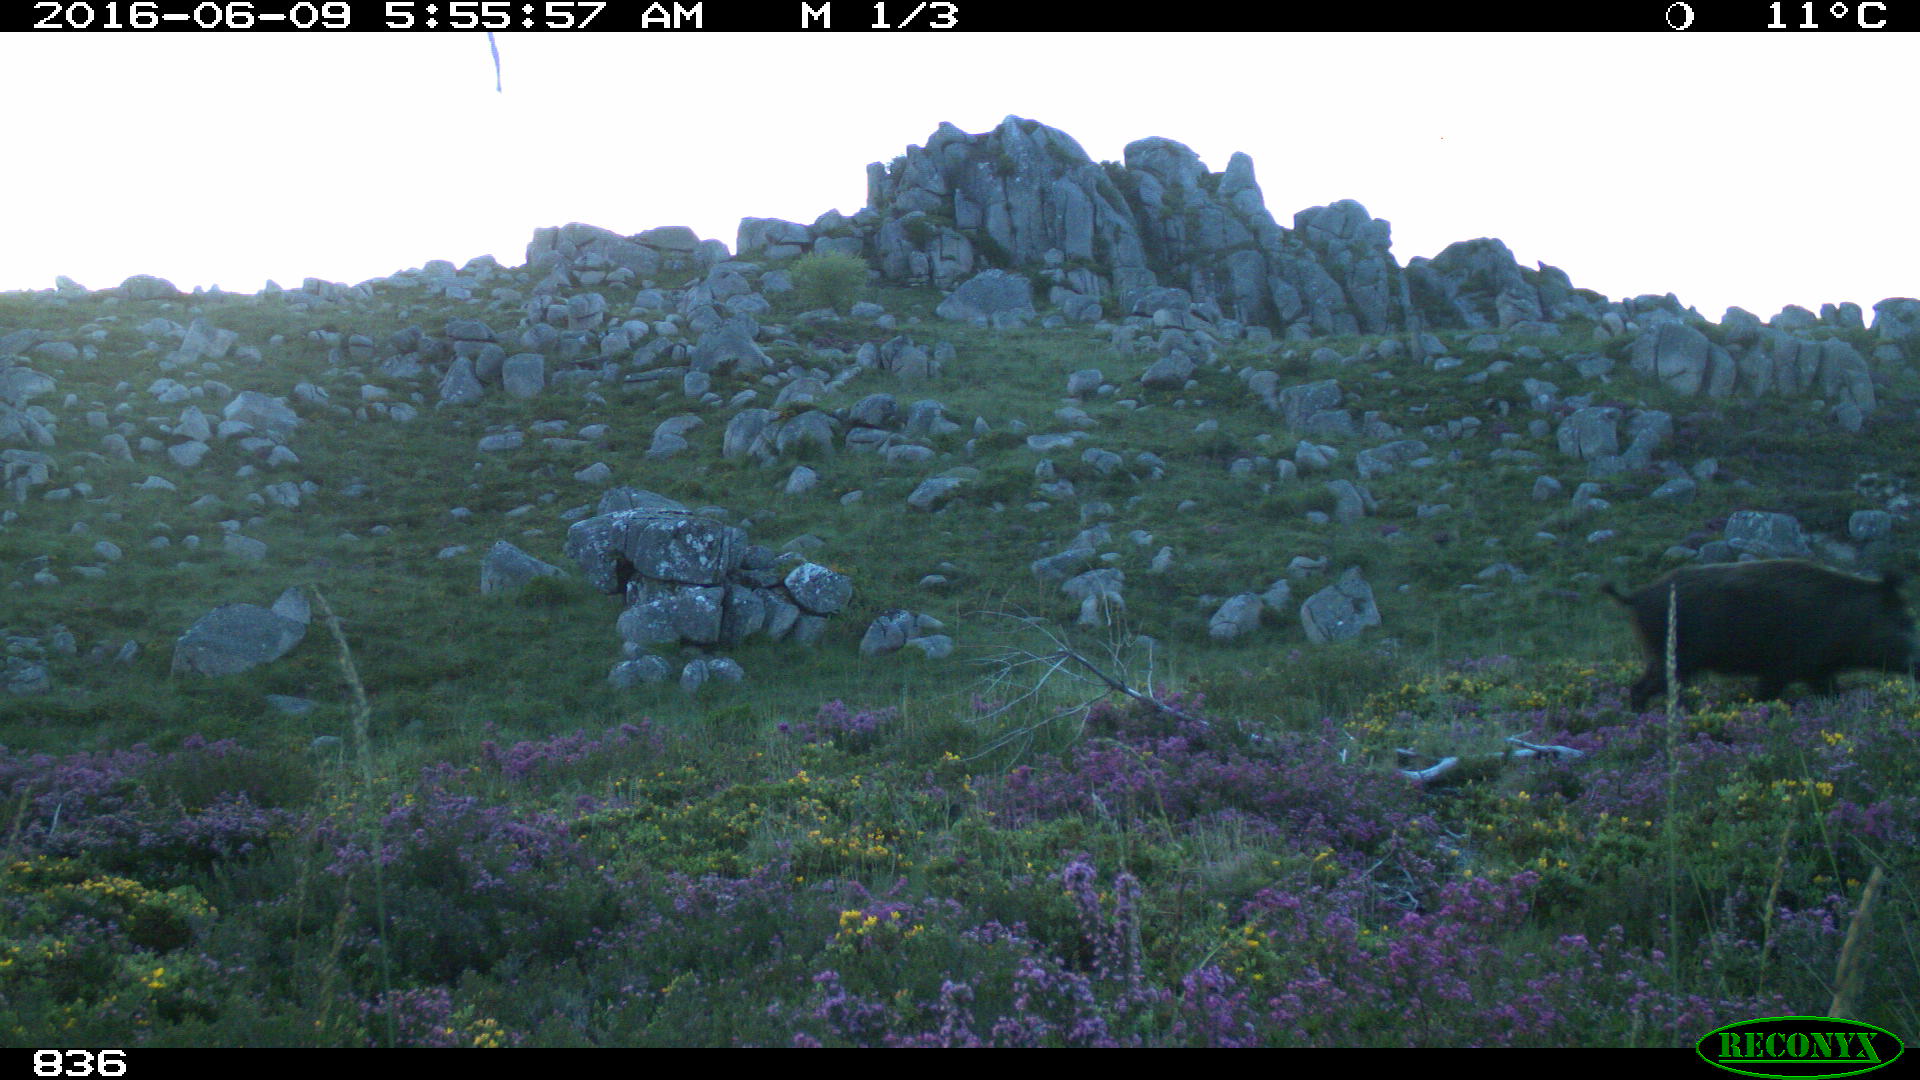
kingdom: Animalia
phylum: Chordata
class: Mammalia
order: Artiodactyla
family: Suidae
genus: Sus
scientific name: Sus scrofa
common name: Wild boar
